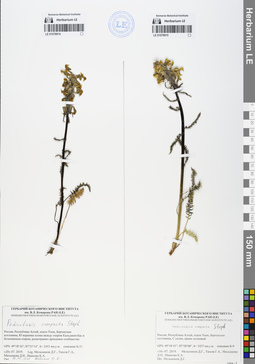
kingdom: Plantae
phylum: Tracheophyta
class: Magnoliopsida
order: Lamiales
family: Orobanchaceae
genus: Pedicularis
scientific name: Pedicularis compacta
